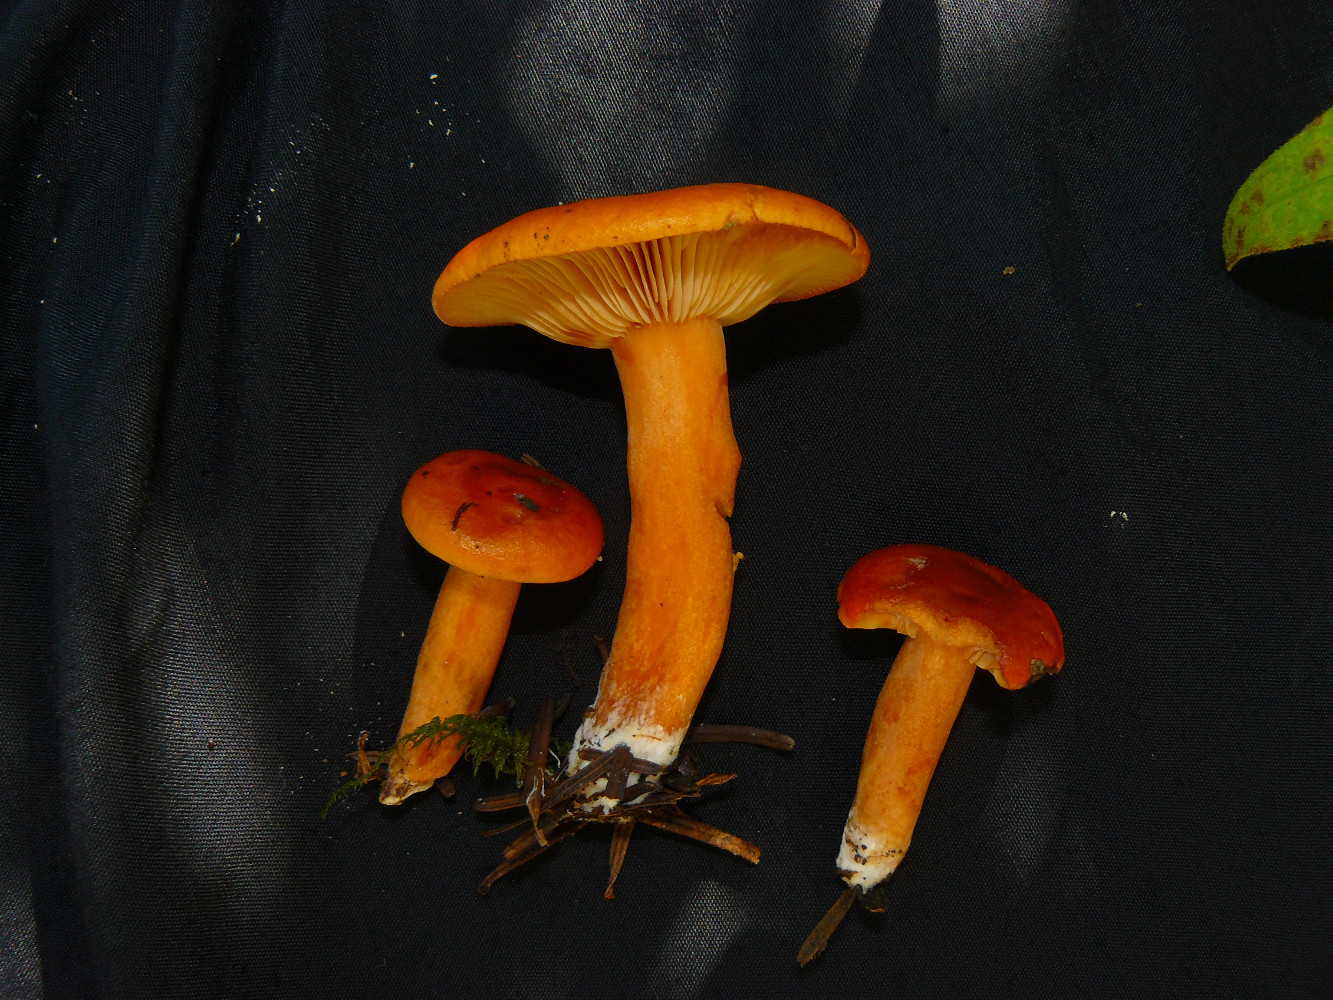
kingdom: Fungi
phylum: Basidiomycota
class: Agaricomycetes
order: Russulales
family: Russulaceae
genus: Lactarius
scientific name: Lactarius aurantiacus
